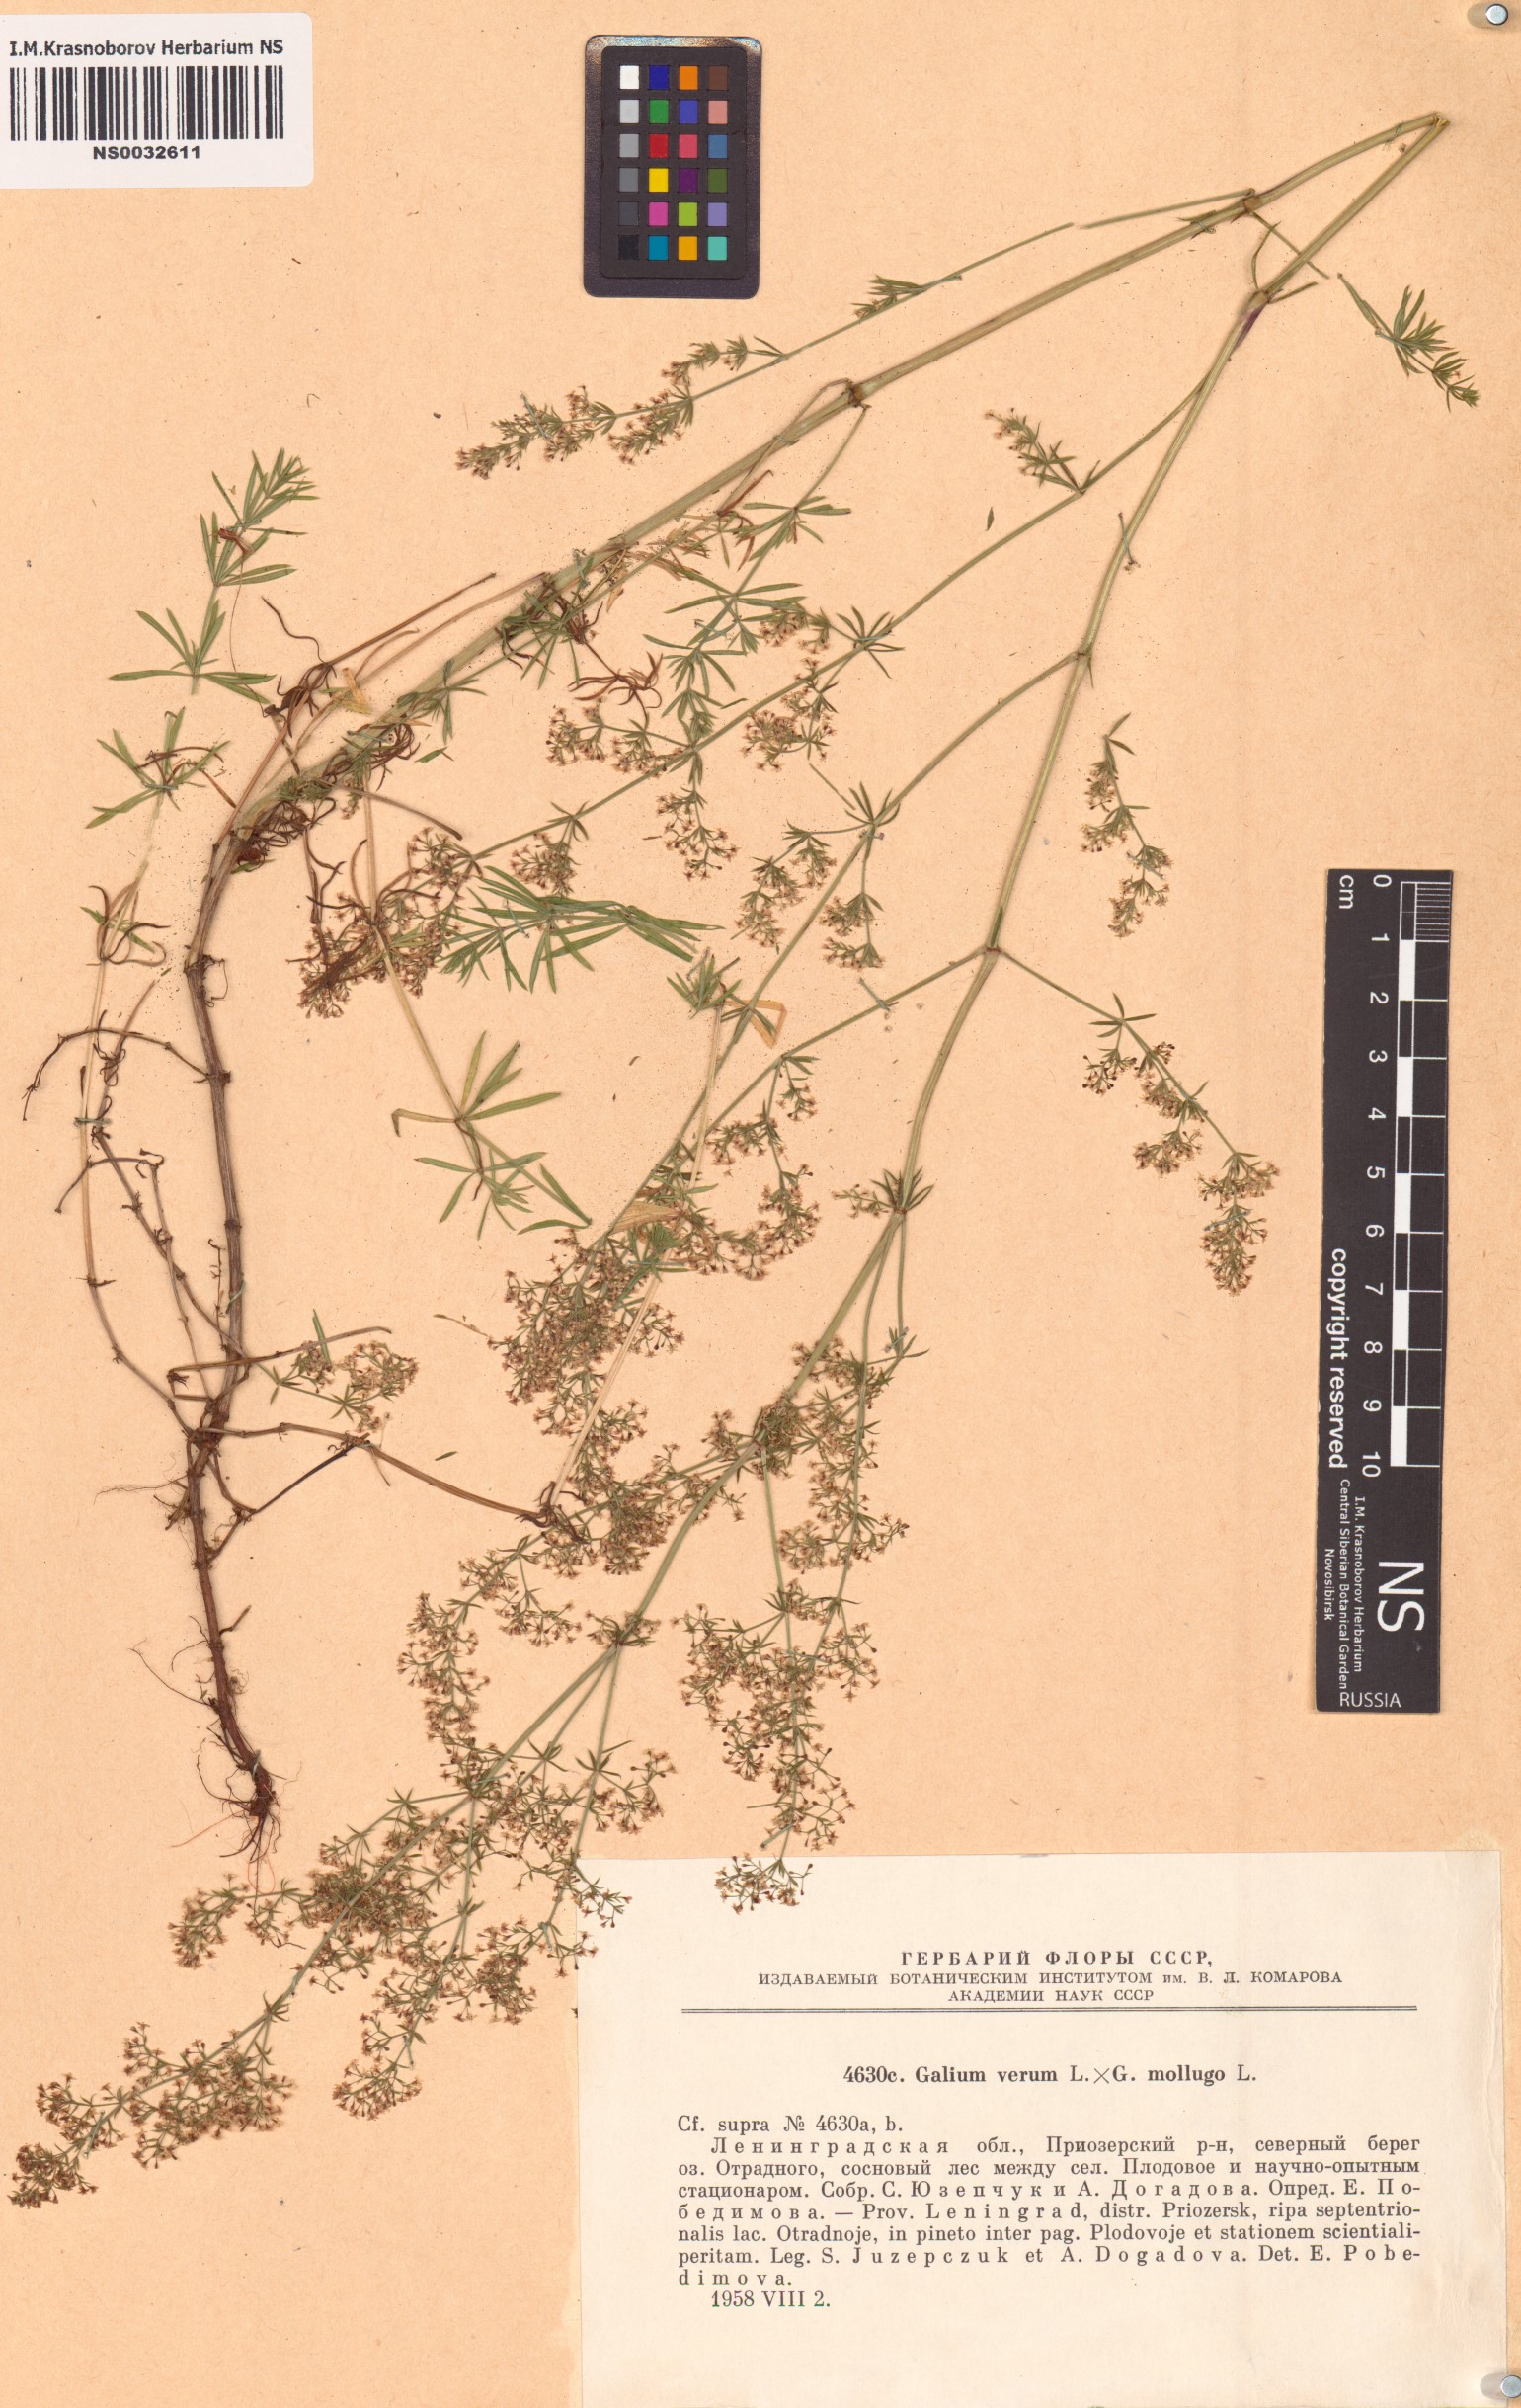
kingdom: Plantae
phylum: Tracheophyta
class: Magnoliopsida
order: Gentianales
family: Rubiaceae
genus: Galium
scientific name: Galium
